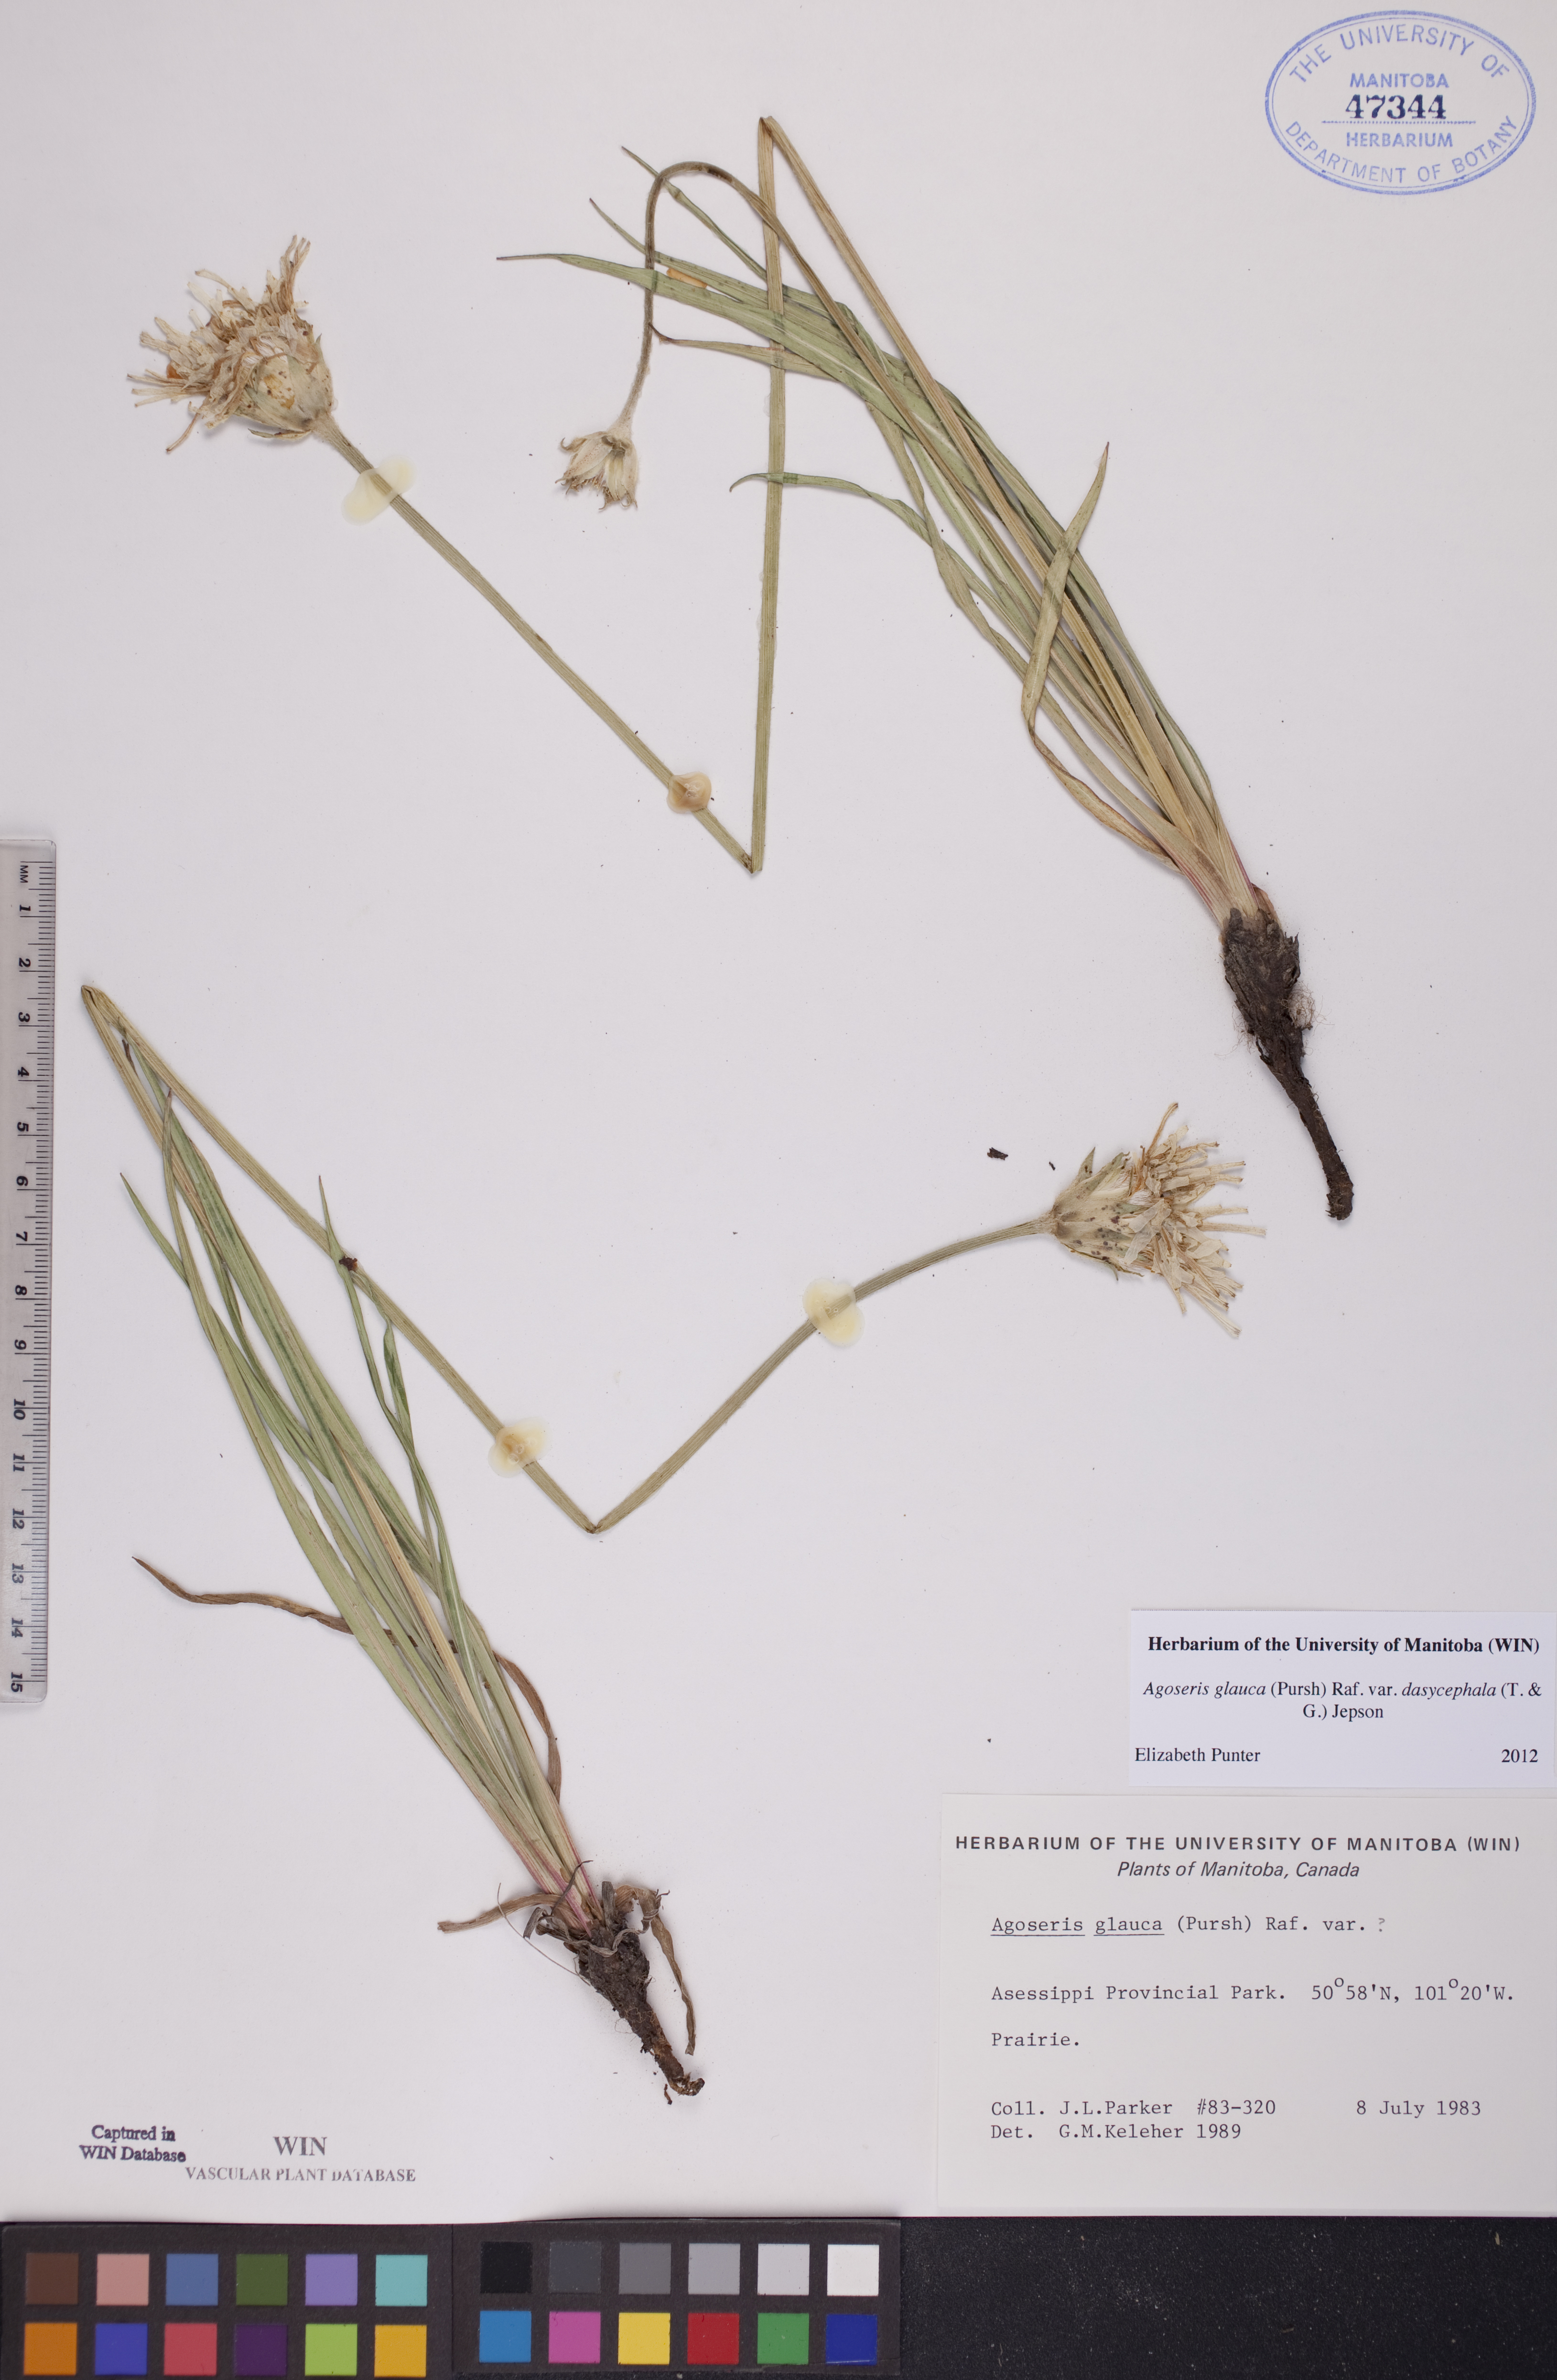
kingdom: Plantae
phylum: Tracheophyta
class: Magnoliopsida
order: Asterales
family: Asteraceae
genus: Agoseris
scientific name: Agoseris glauca
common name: Prairie agoseris
